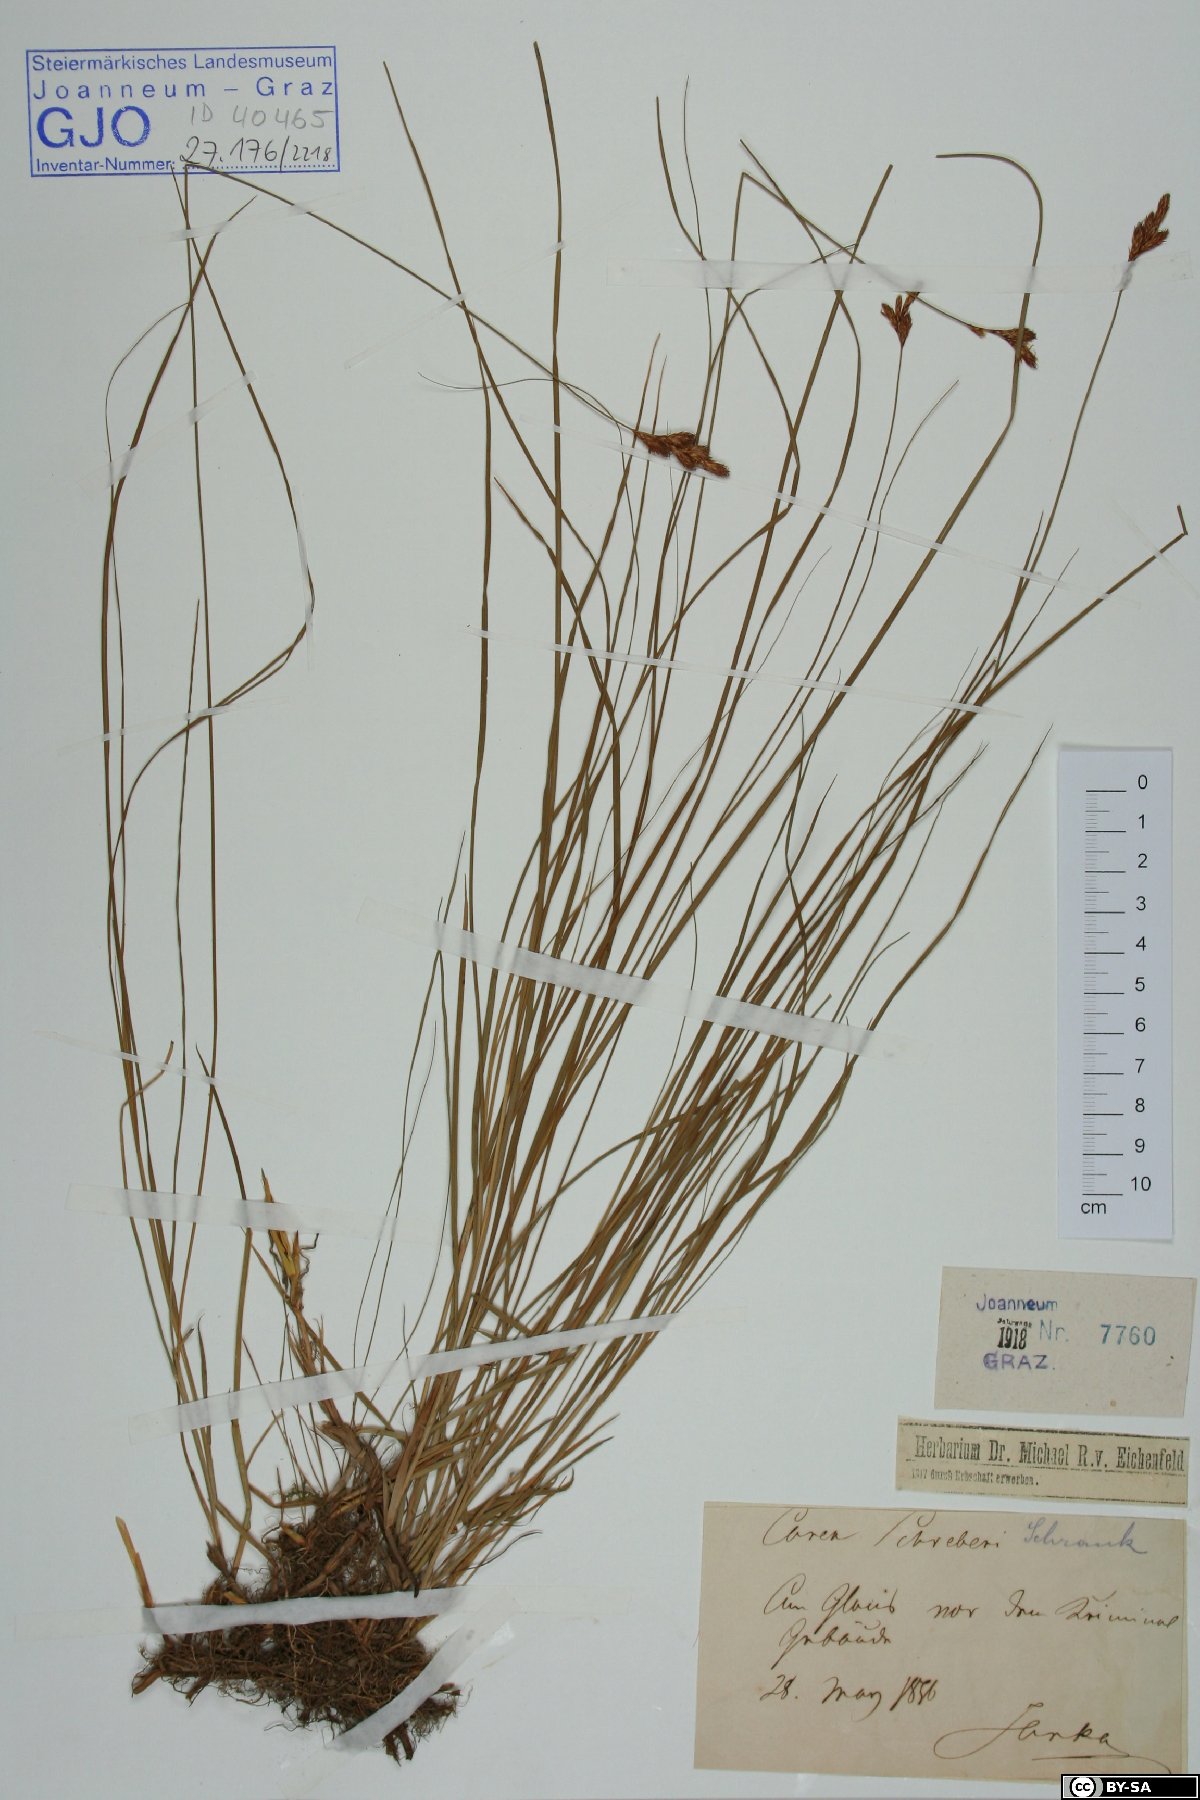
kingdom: Plantae
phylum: Tracheophyta
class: Liliopsida
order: Poales
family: Cyperaceae
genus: Carex
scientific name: Carex praecox
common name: Early sedge
